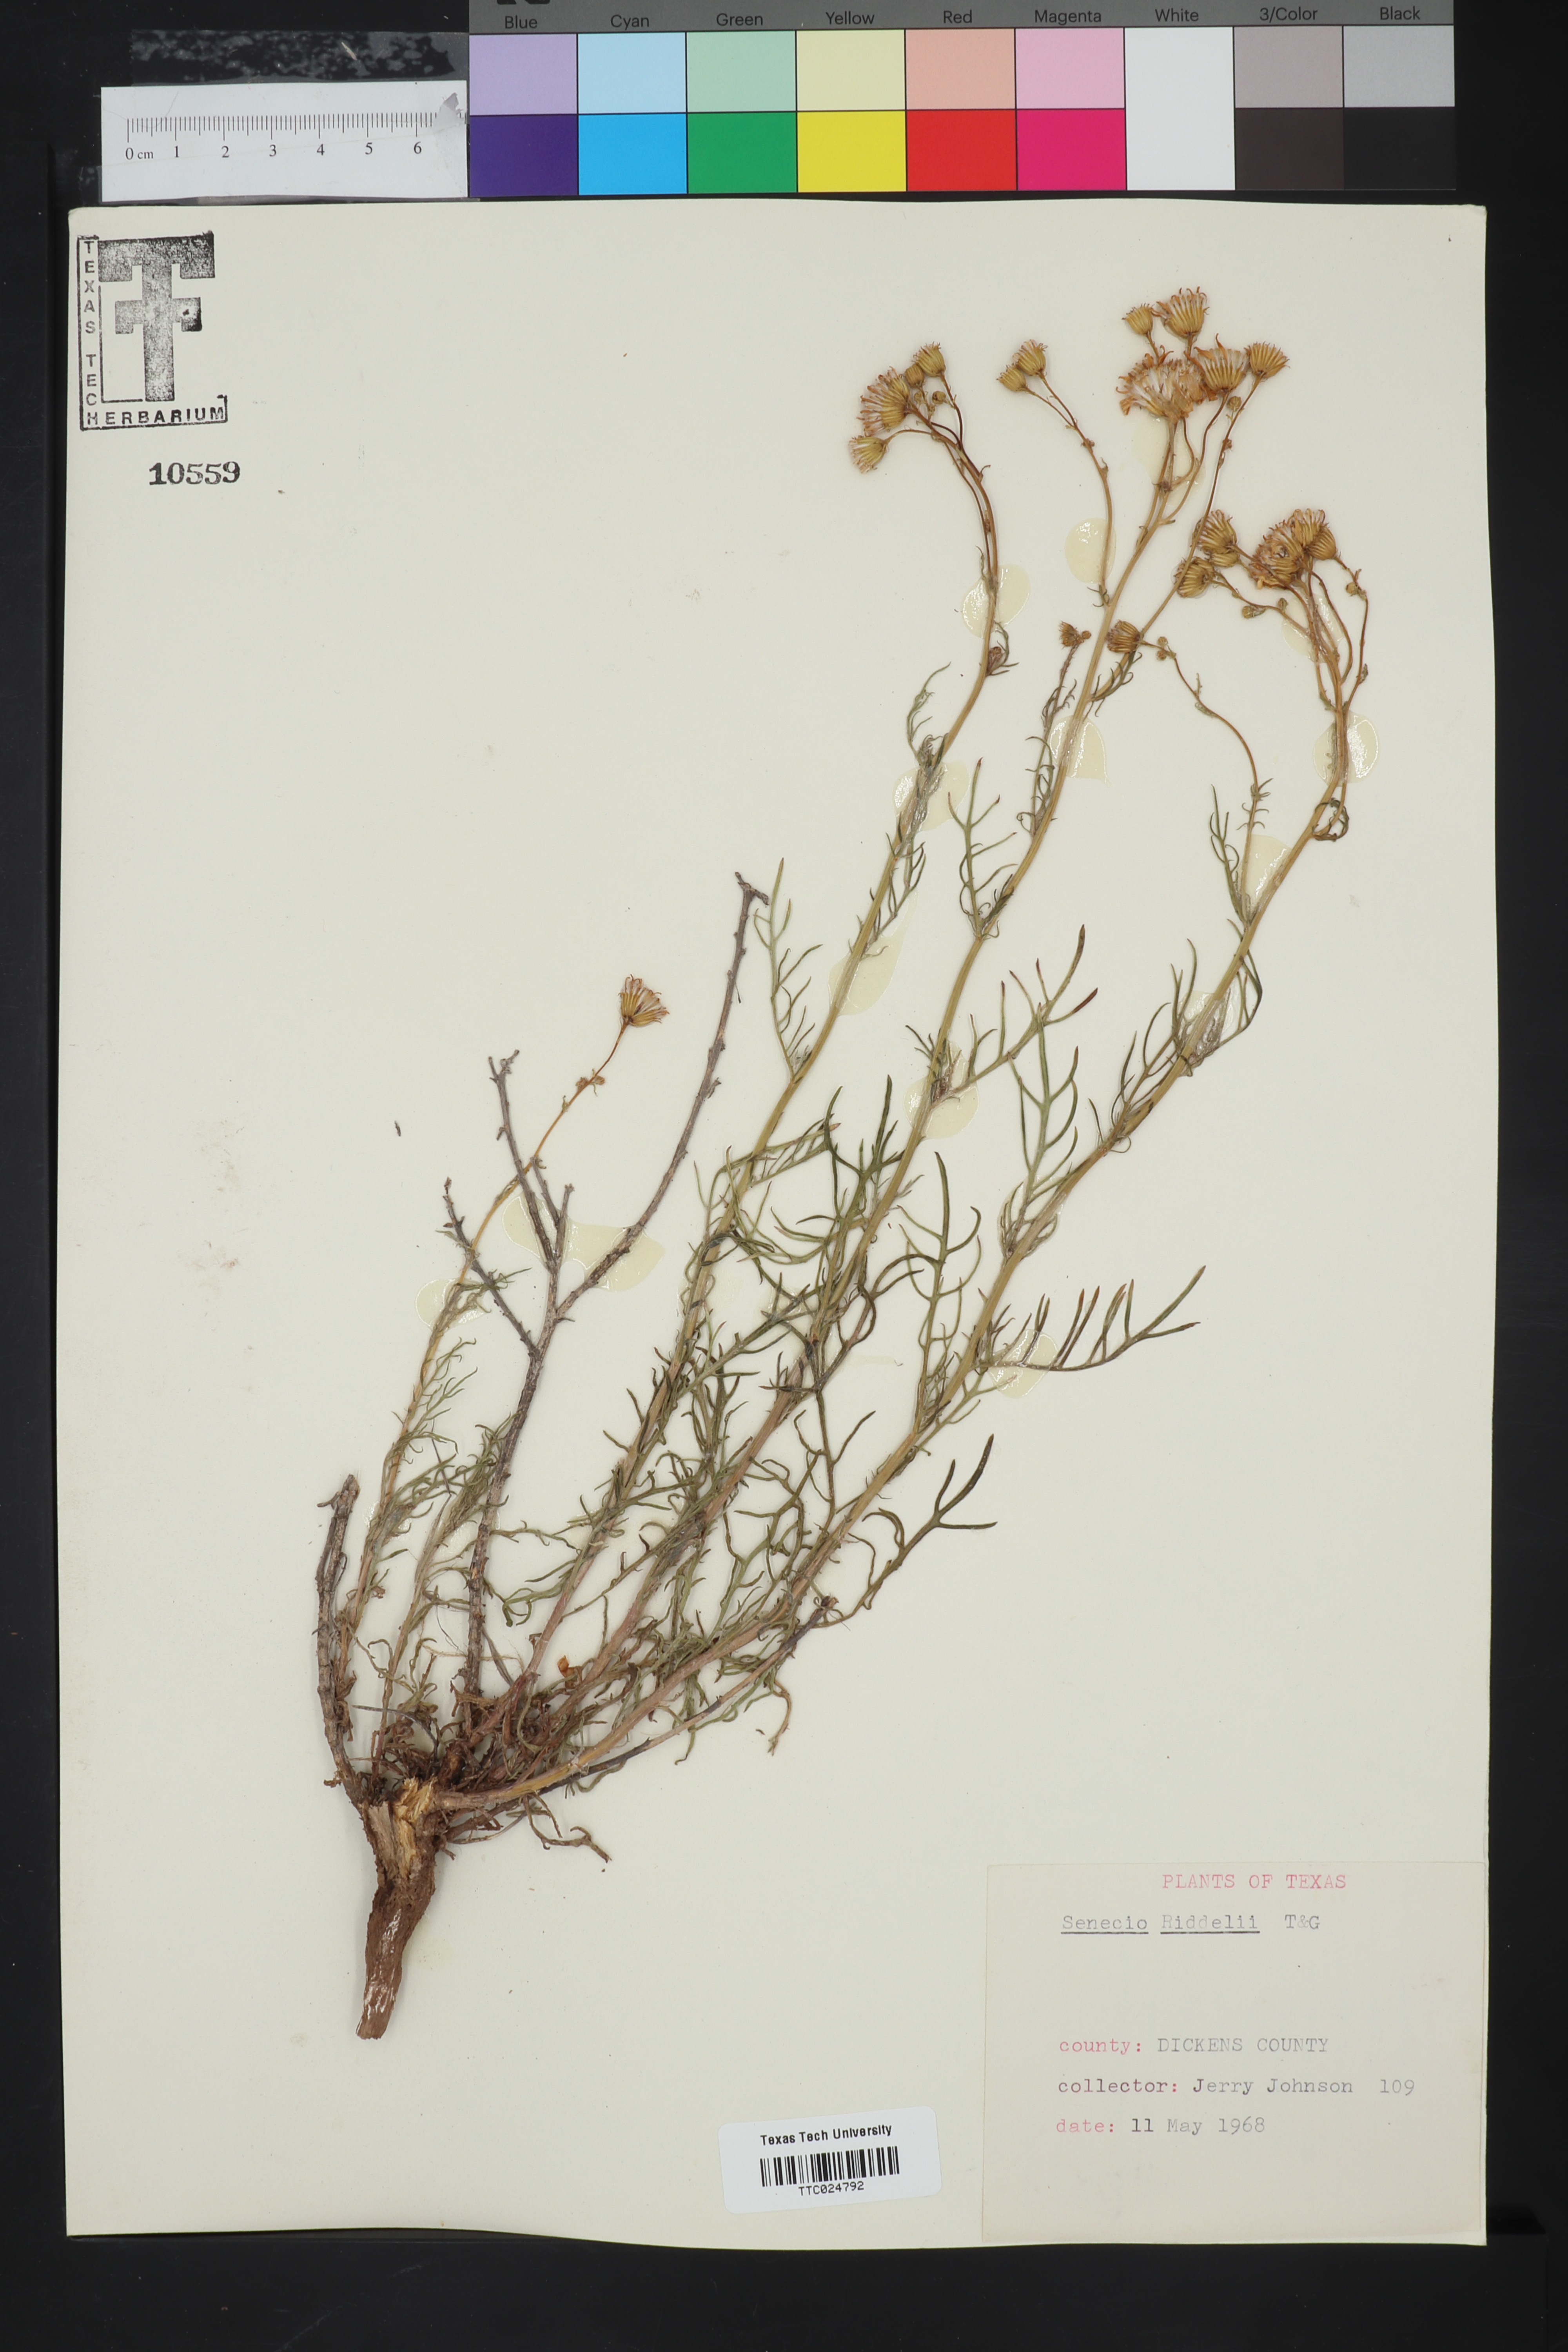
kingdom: Plantae
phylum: Tracheophyta
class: Magnoliopsida
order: Asterales
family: Asteraceae
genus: Senecio
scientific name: Senecio riddellii
